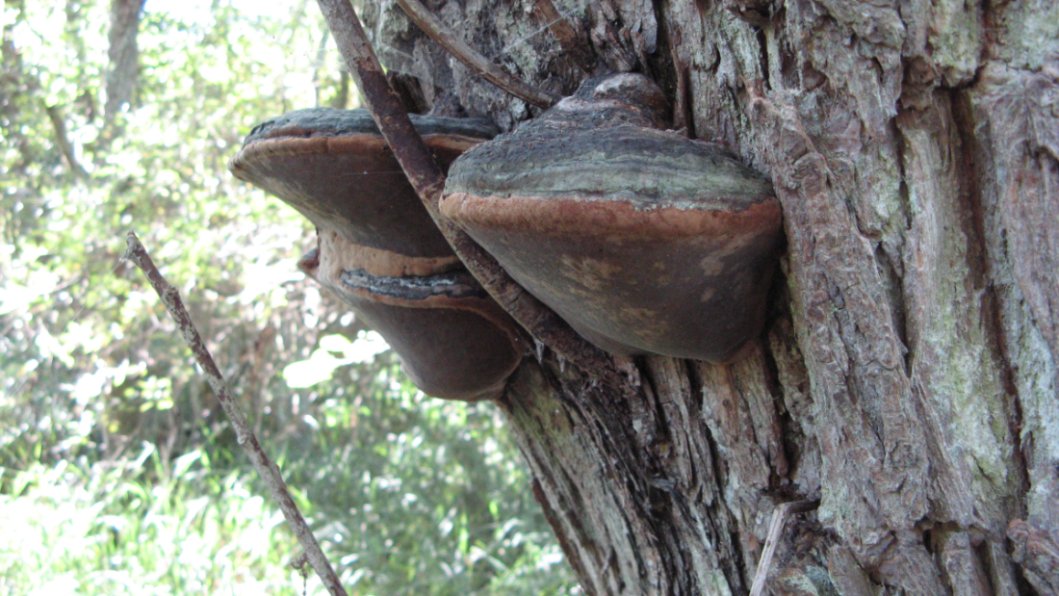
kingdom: Fungi
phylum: Basidiomycota
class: Agaricomycetes
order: Hymenochaetales
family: Hymenochaetaceae
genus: Phellinus
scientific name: Phellinus igniarius
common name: almindelig ildporesvamp
